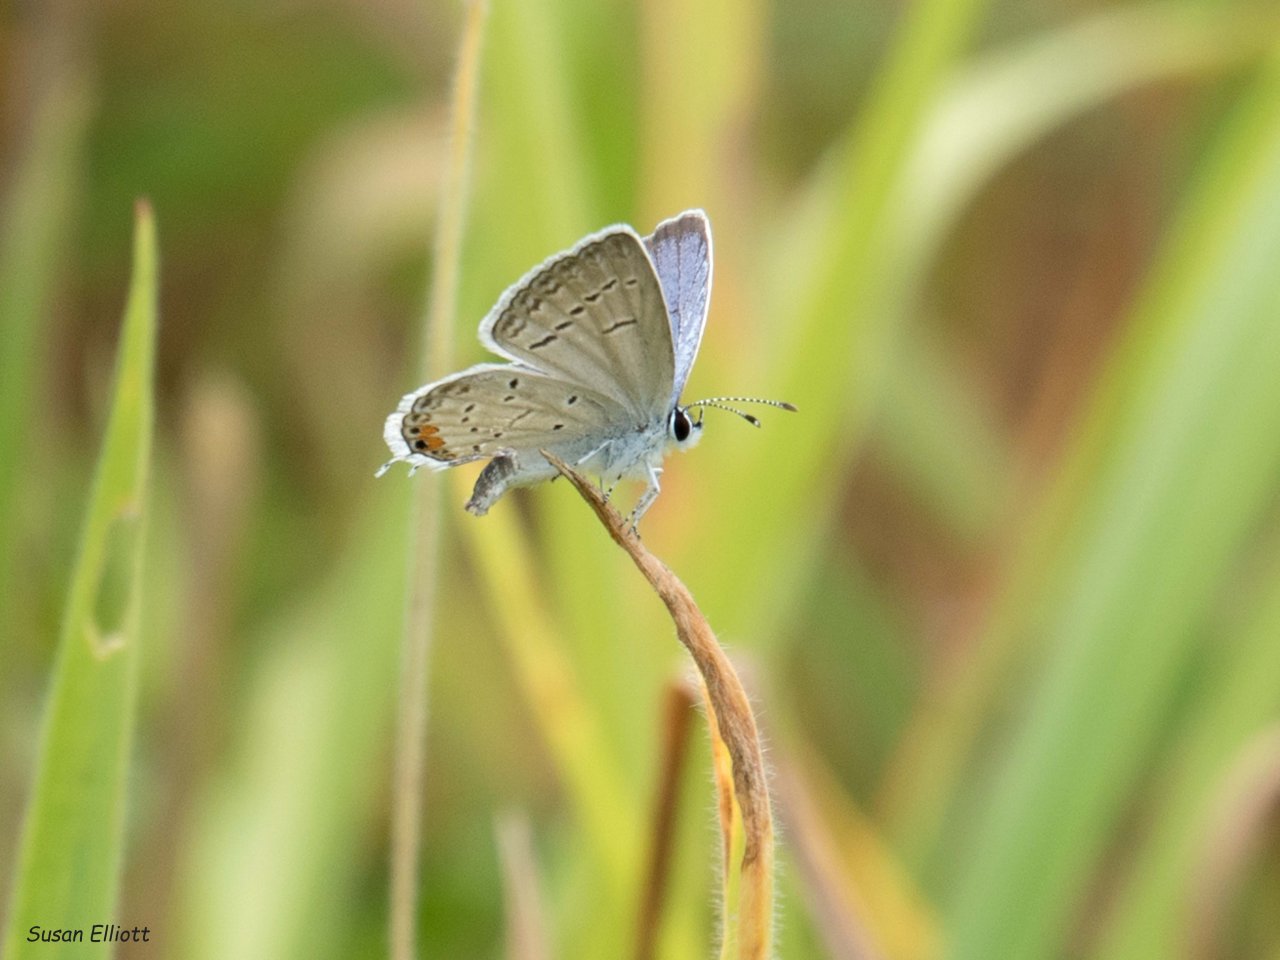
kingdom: Animalia
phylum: Arthropoda
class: Insecta
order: Lepidoptera
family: Lycaenidae
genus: Elkalyce
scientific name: Elkalyce comyntas
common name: Eastern Tailed-Blue
